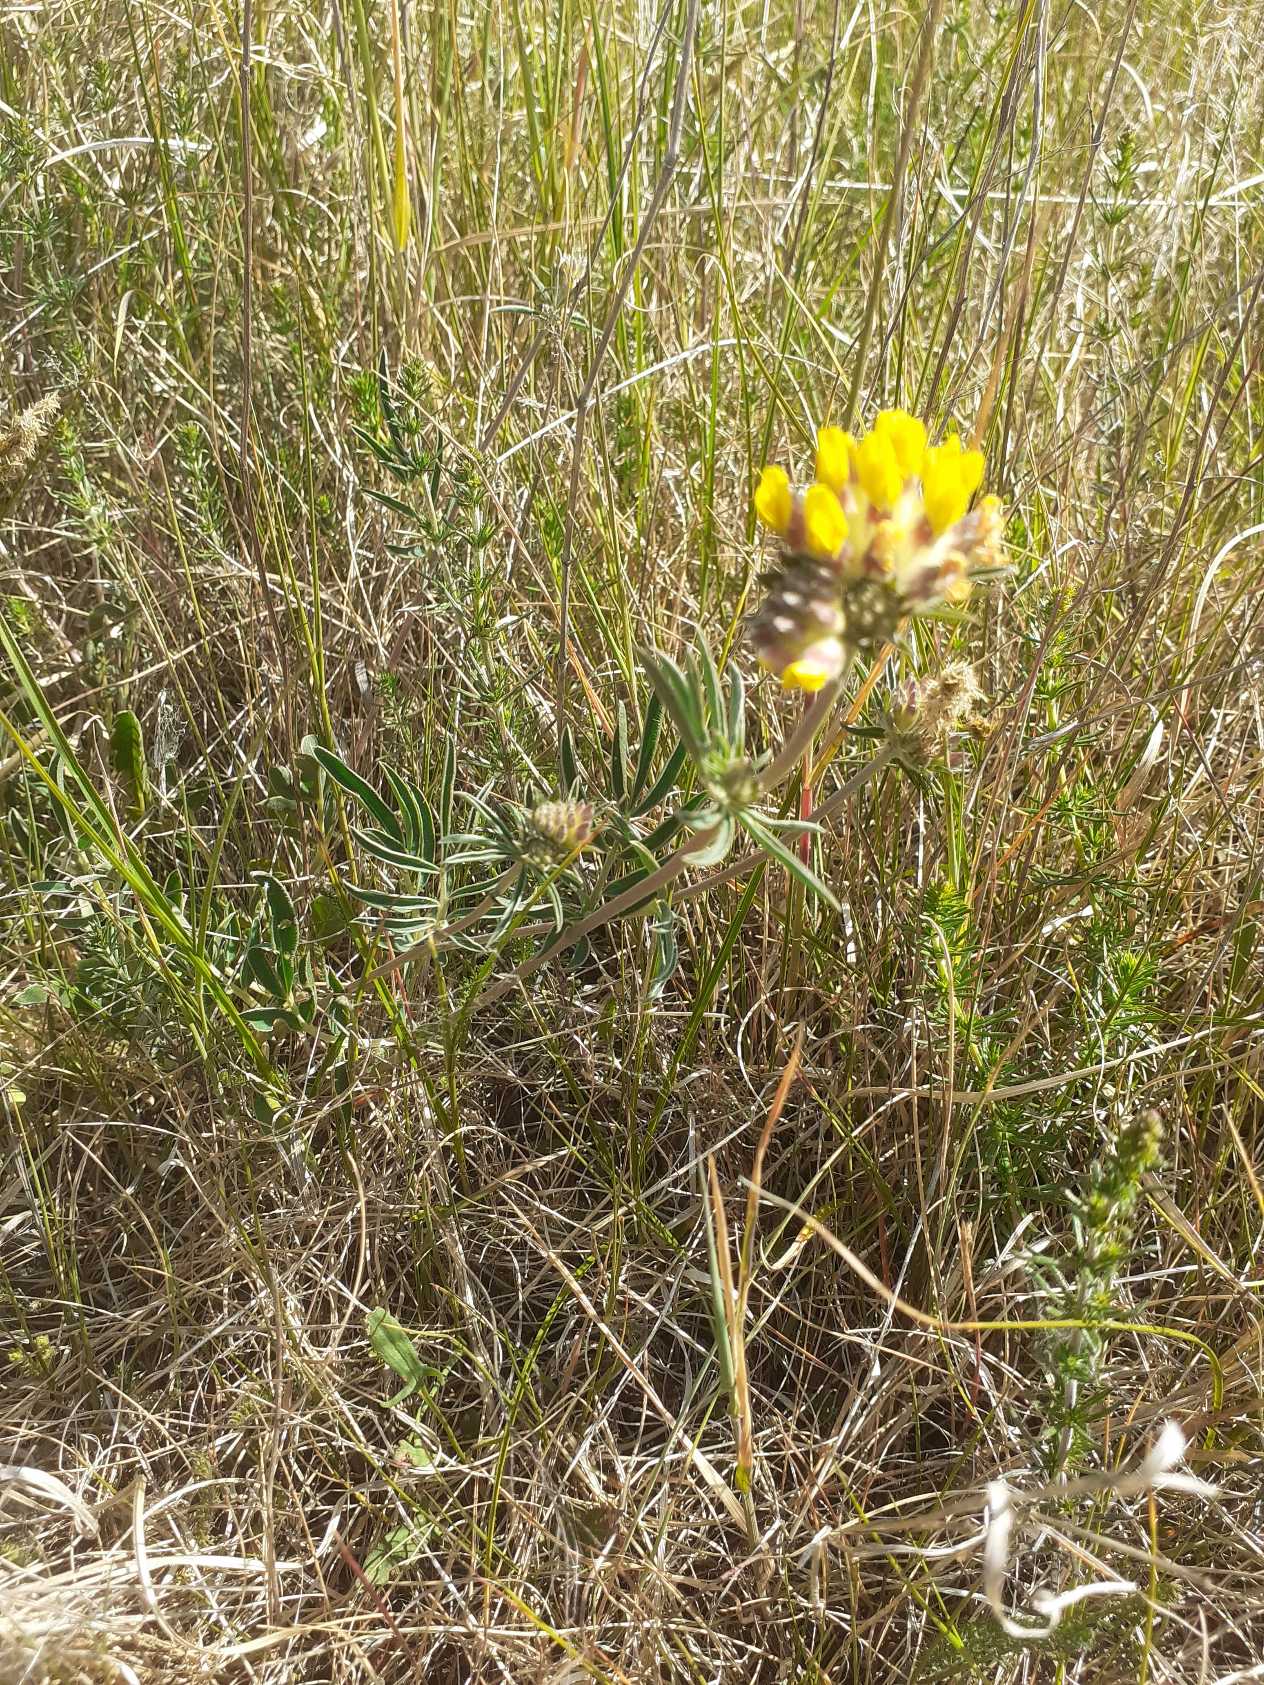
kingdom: Plantae
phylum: Tracheophyta
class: Magnoliopsida
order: Fabales
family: Fabaceae
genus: Anthyllis
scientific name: Anthyllis vulneraria
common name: Rundbælg
